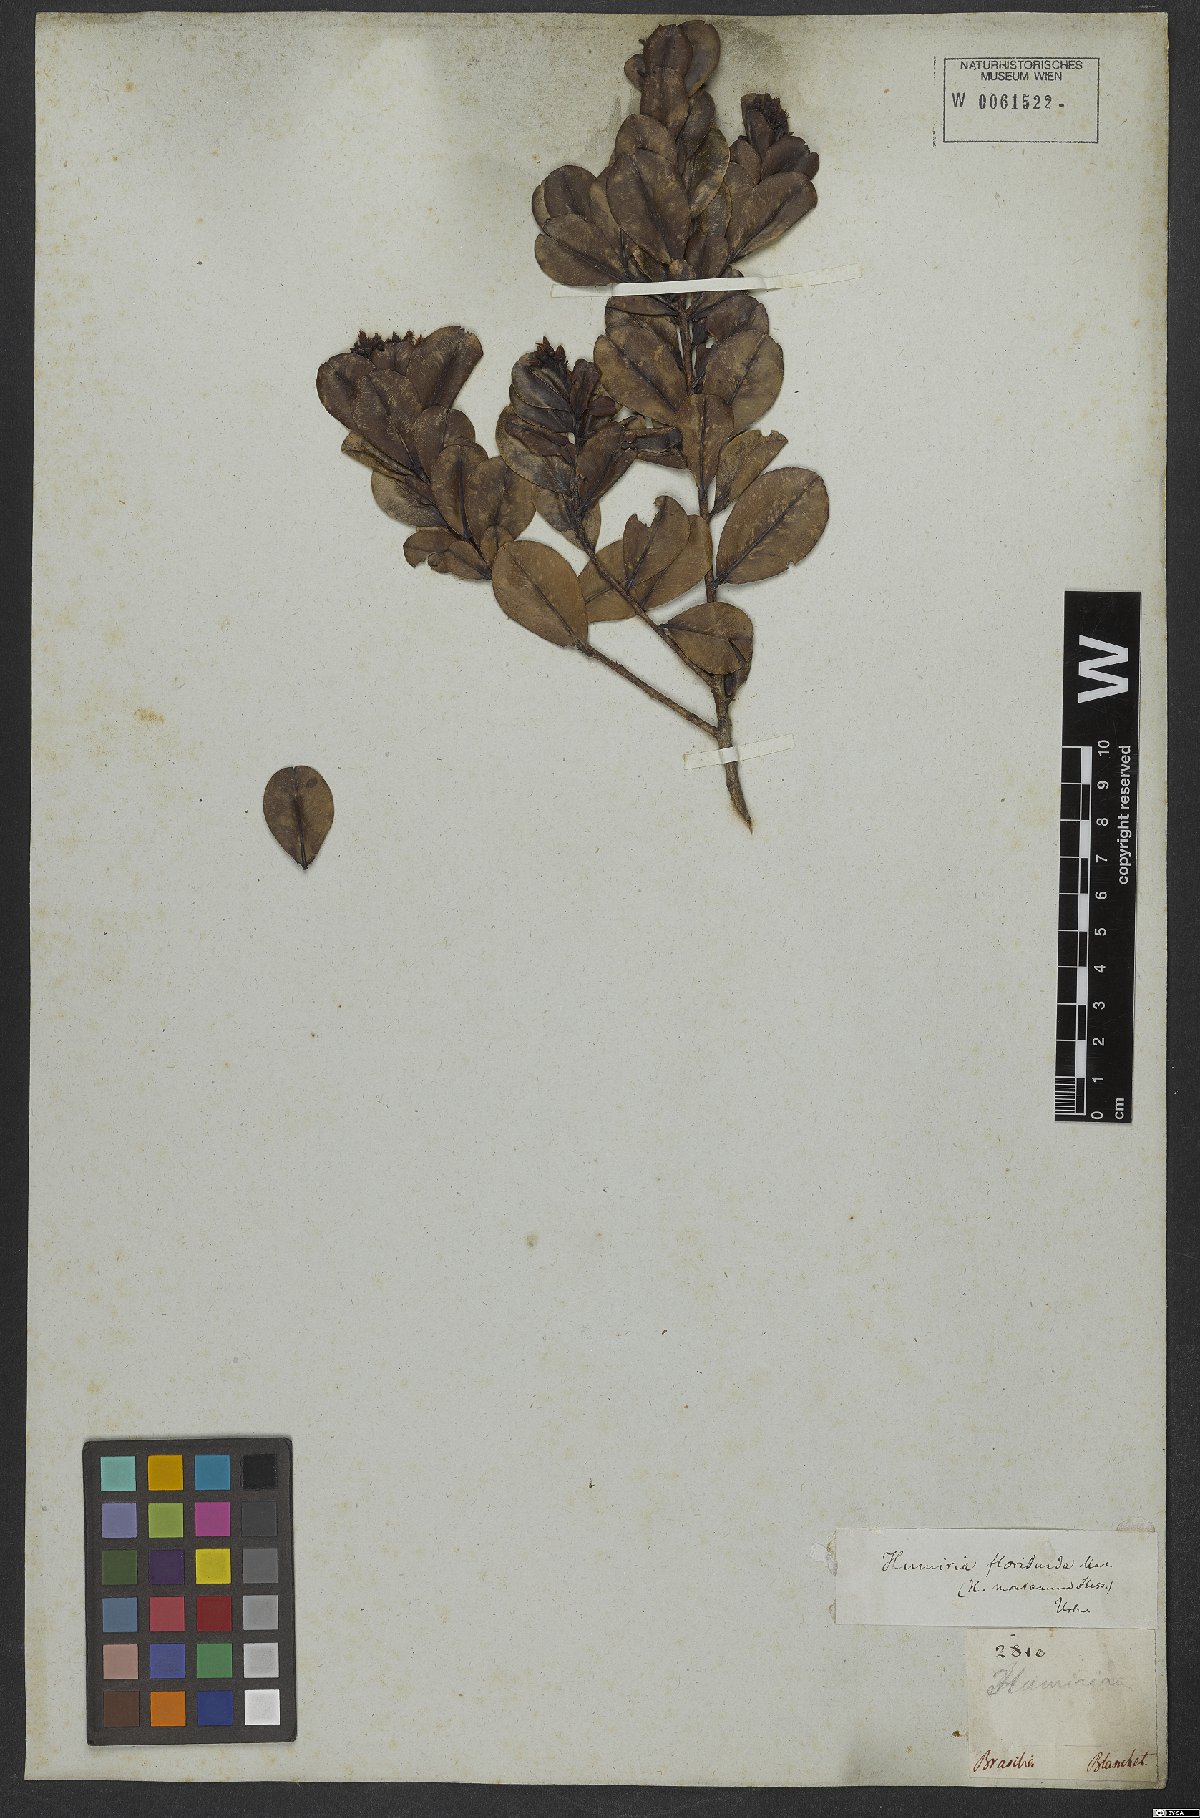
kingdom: Plantae
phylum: Tracheophyta
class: Magnoliopsida
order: Malpighiales
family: Humiriaceae
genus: Humiria
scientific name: Humiria
